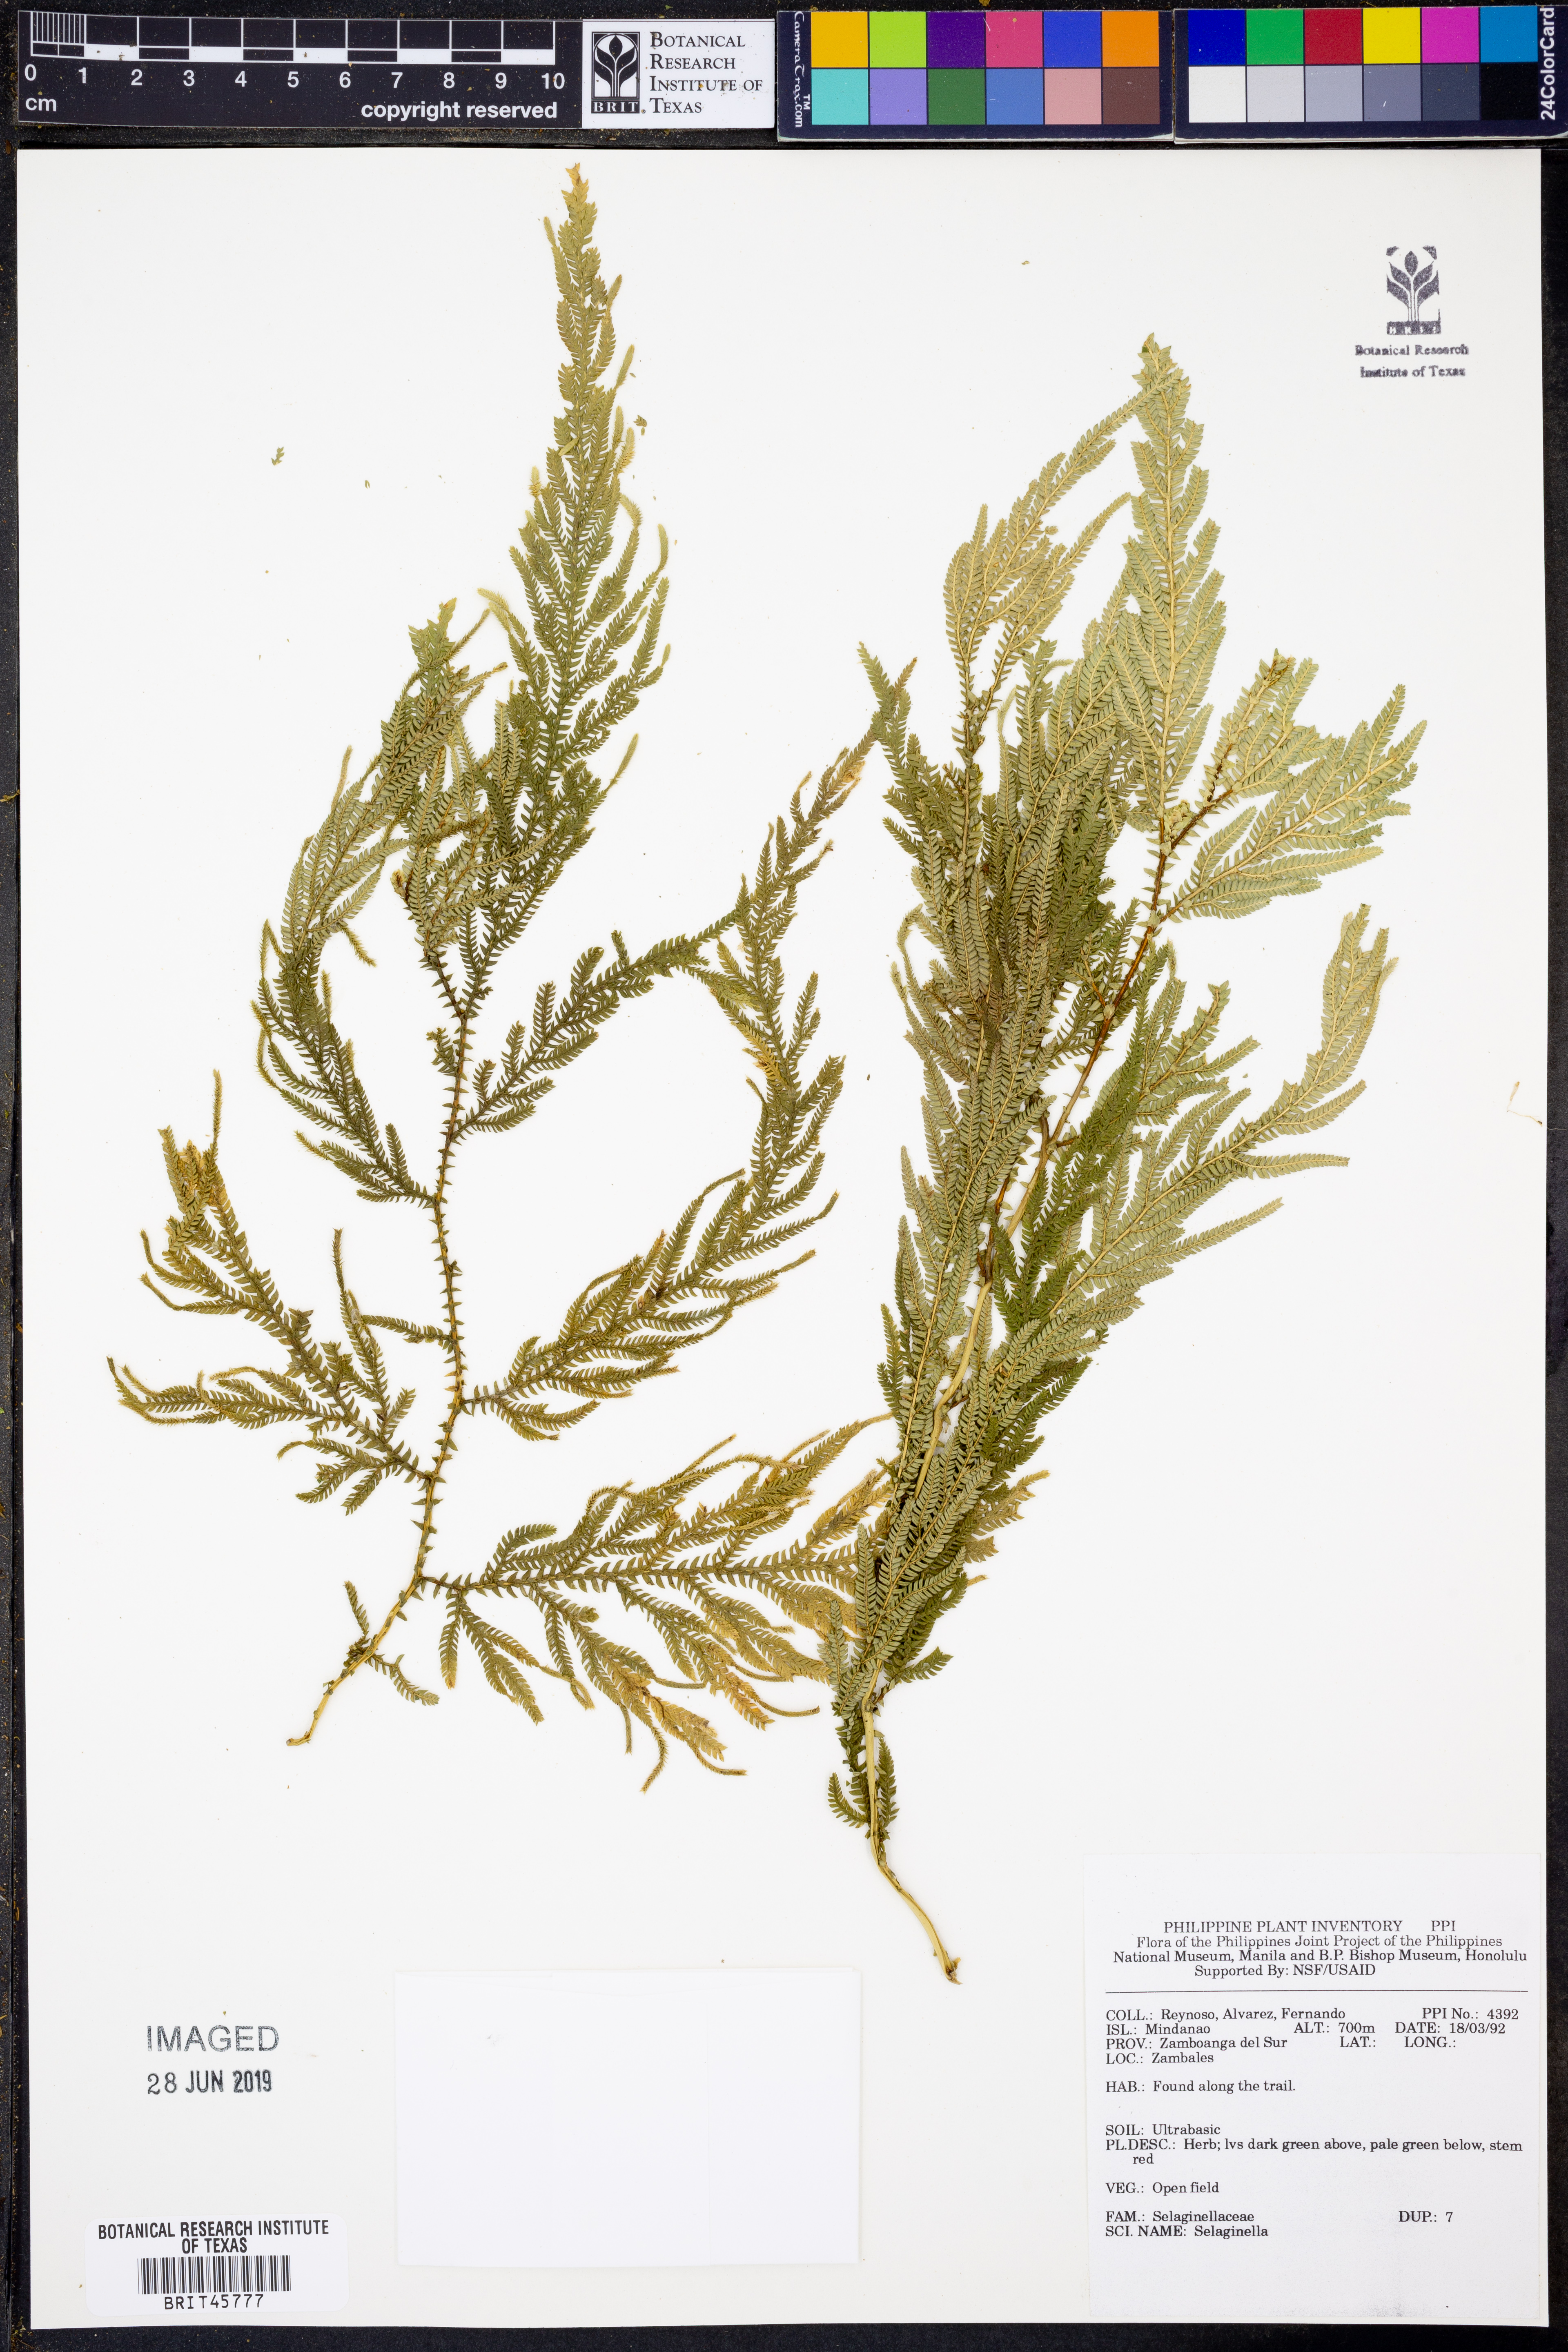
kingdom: Plantae
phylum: Tracheophyta
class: Lycopodiopsida
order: Selaginellales
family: Selaginellaceae
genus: Selaginella
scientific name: Selaginella
